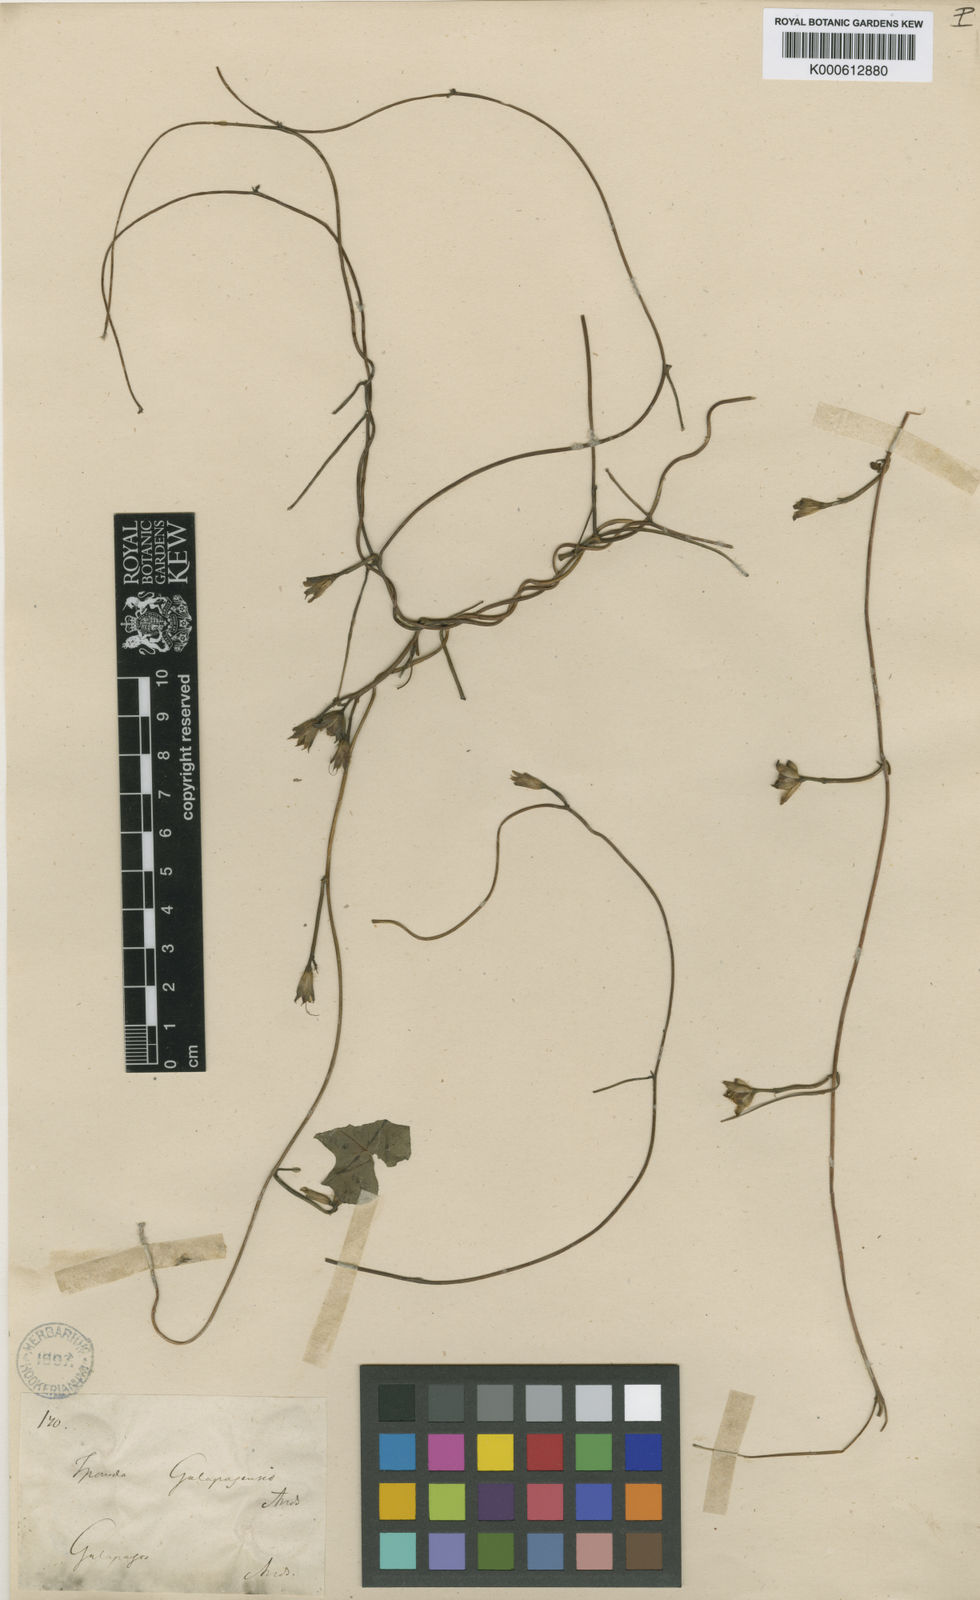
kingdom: Plantae
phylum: Tracheophyta
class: Magnoliopsida
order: Solanales
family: Convolvulaceae
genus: Ipomoea
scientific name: Ipomoea triloba
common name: Little-bell
